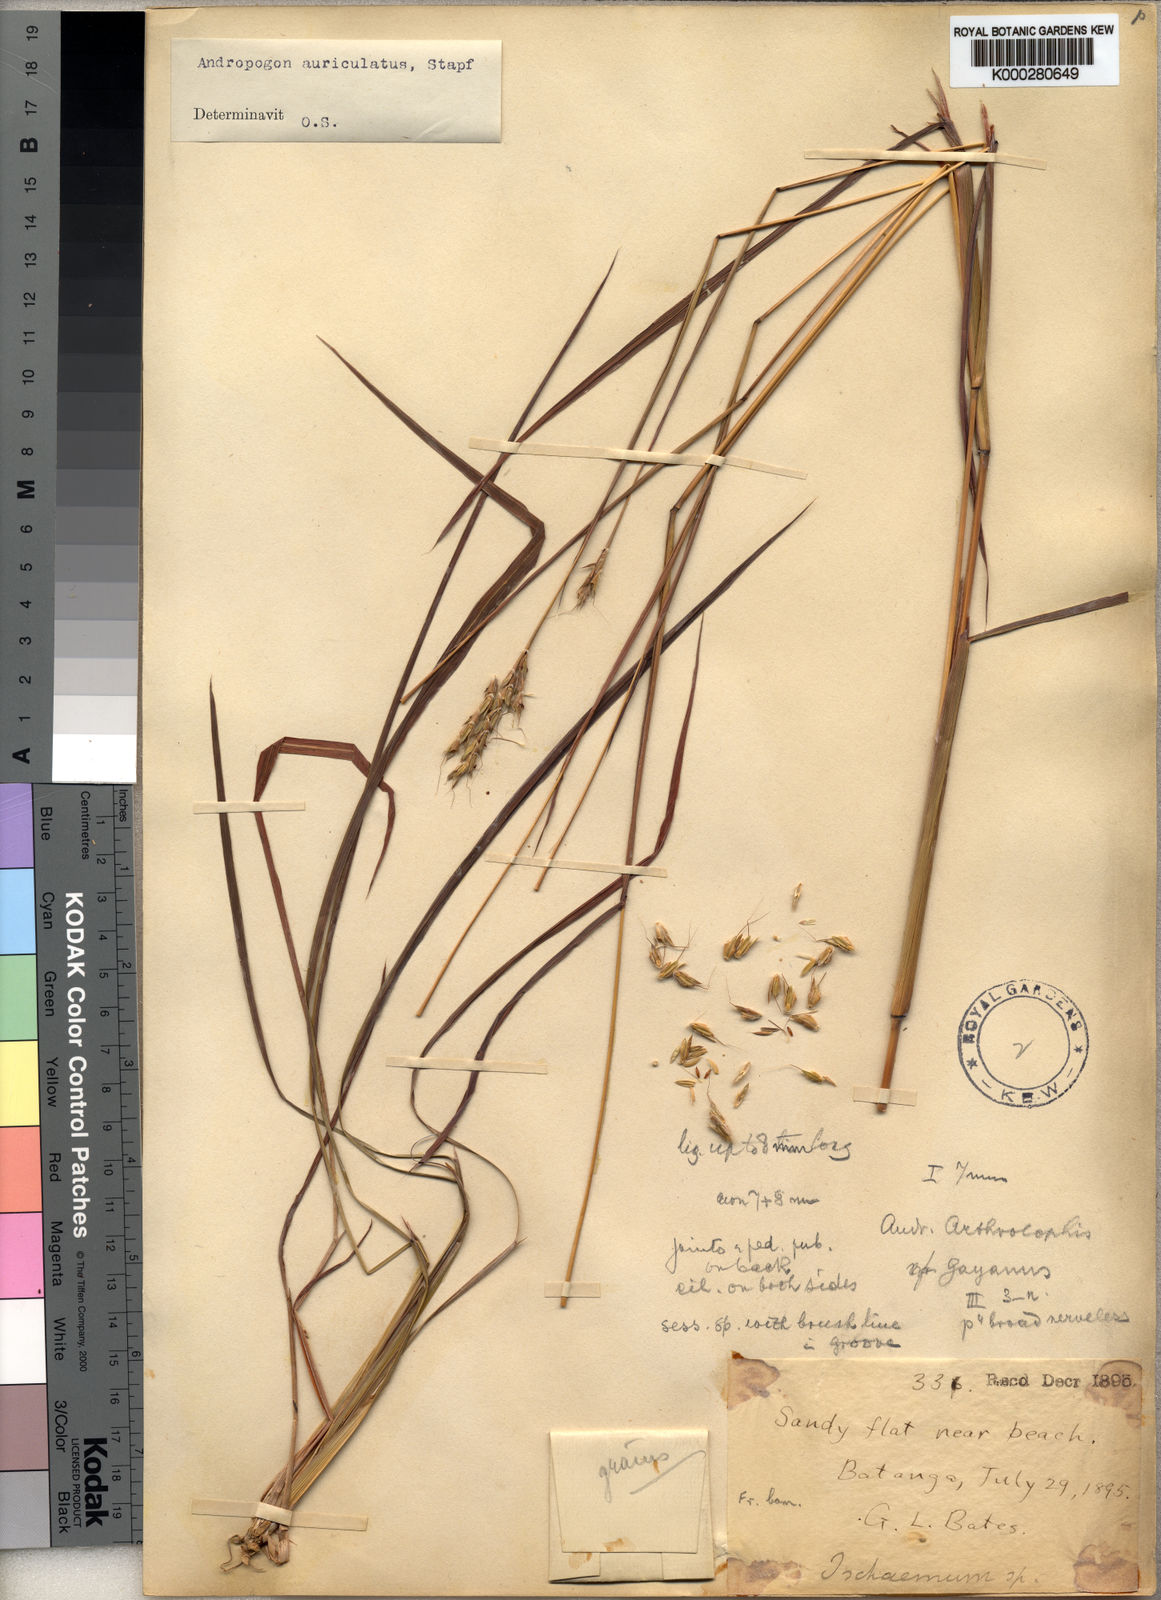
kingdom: Plantae
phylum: Tracheophyta
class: Liliopsida
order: Poales
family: Poaceae
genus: Andropogon
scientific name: Andropogon auriculatus
